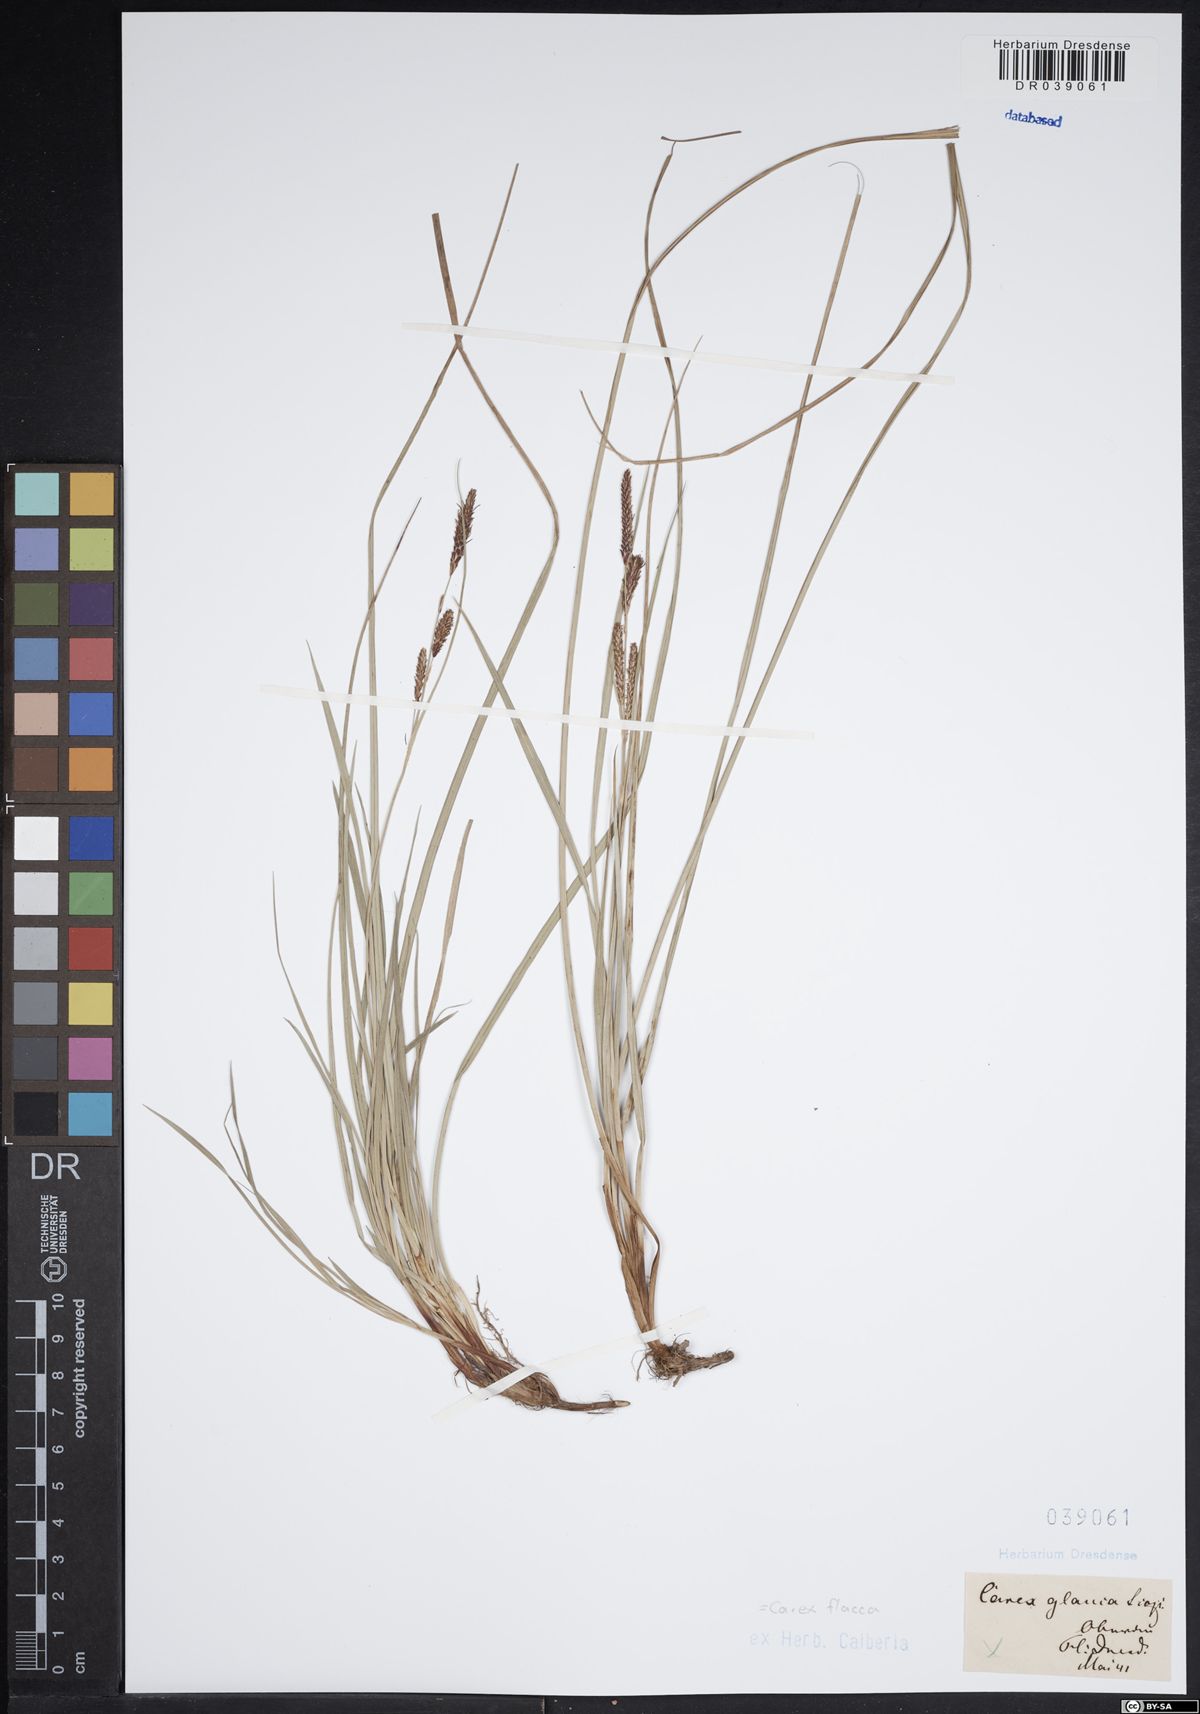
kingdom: Plantae
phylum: Tracheophyta
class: Liliopsida
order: Poales
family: Cyperaceae
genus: Carex
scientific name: Carex flacca
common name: Glaucous sedge
